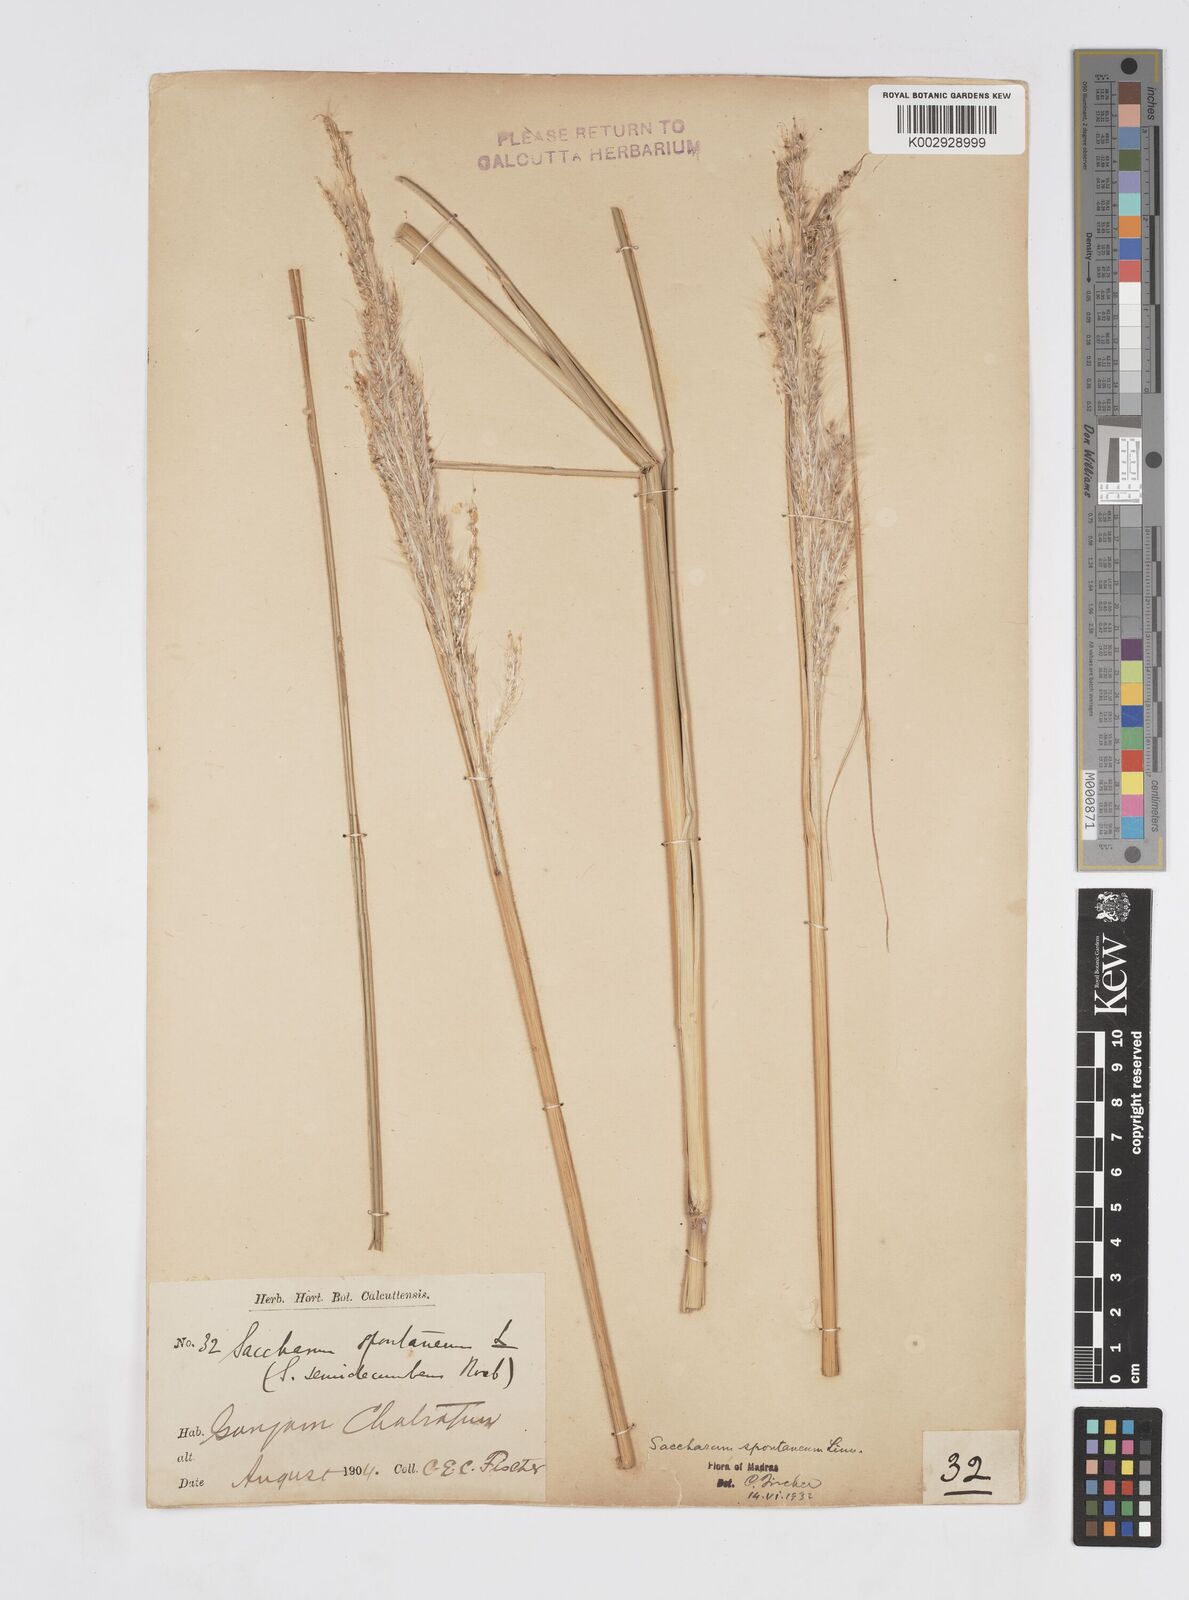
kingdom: Plantae
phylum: Tracheophyta
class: Liliopsida
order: Poales
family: Poaceae
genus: Saccharum
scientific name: Saccharum spontaneum
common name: Wild sugarcane
